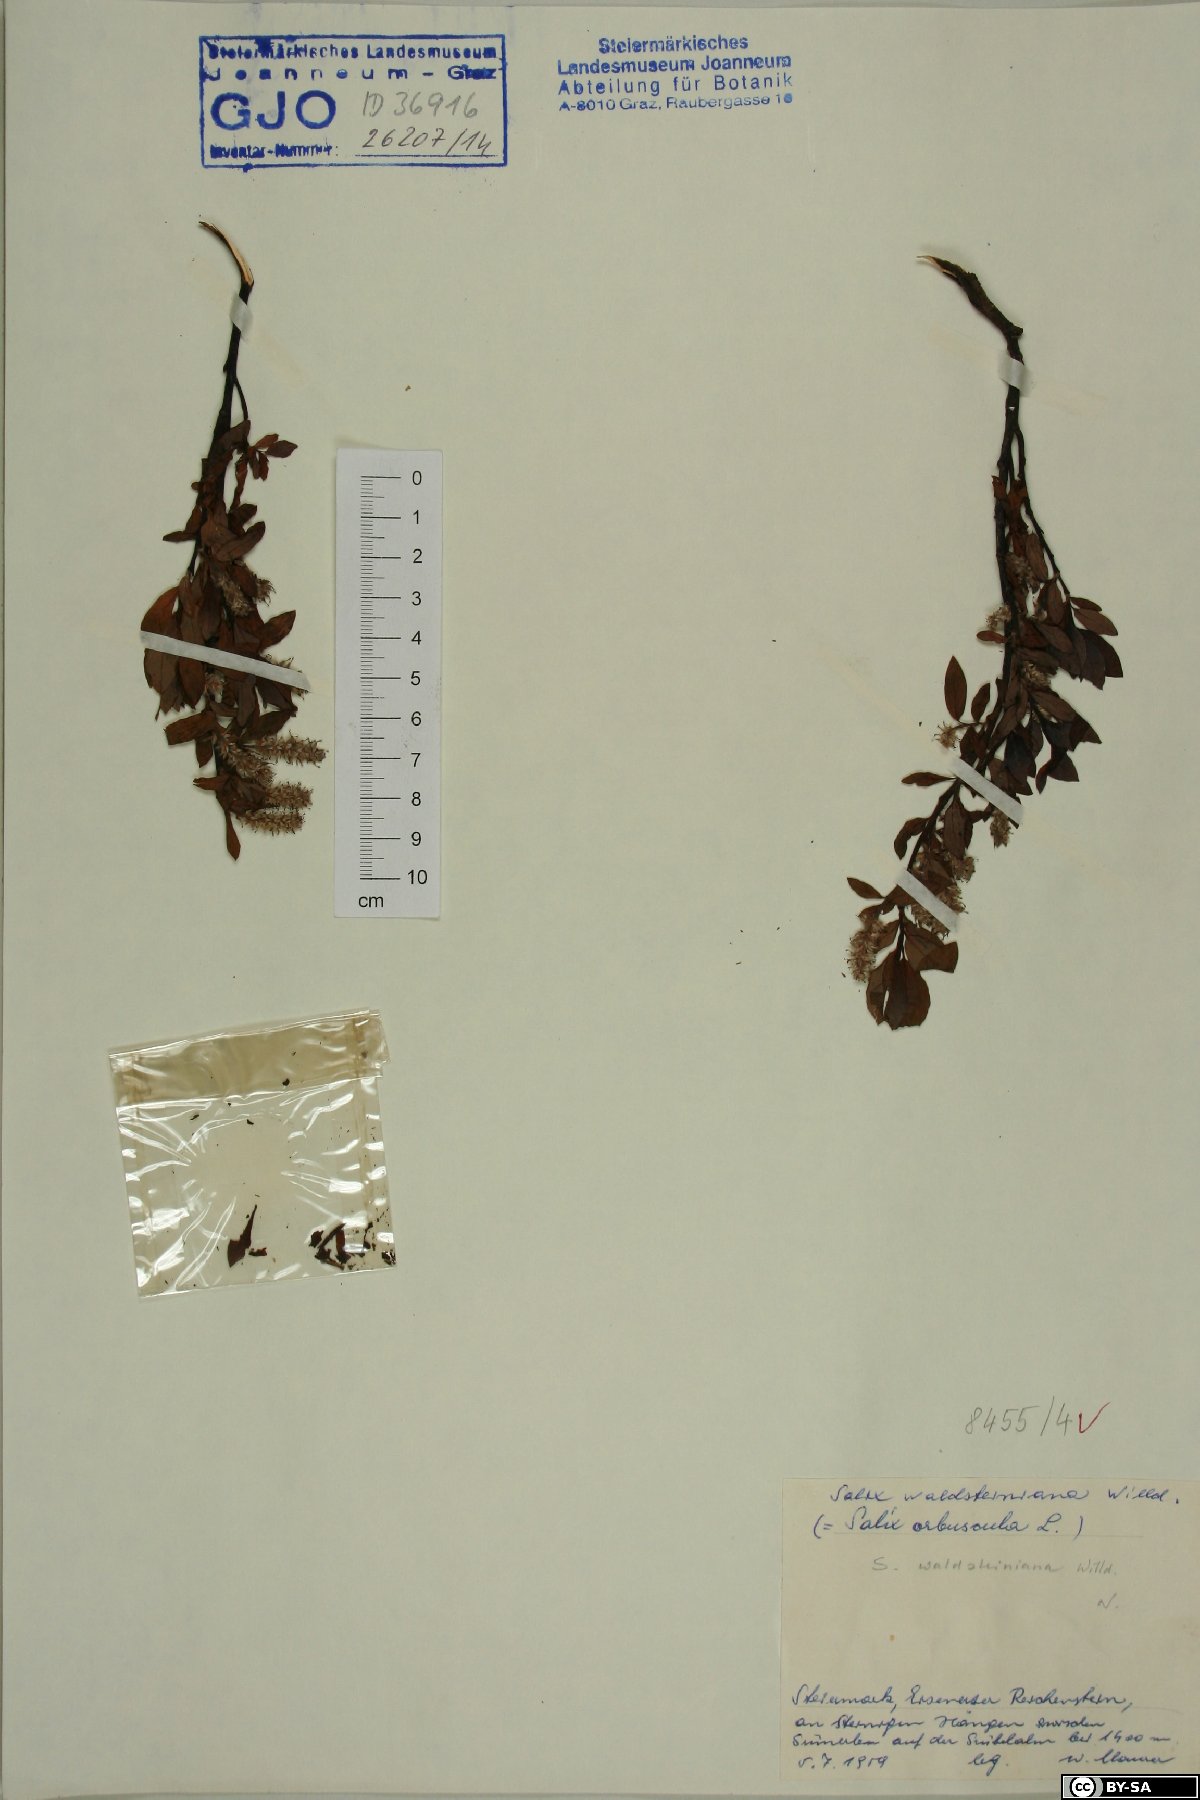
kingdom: Plantae
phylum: Tracheophyta
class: Magnoliopsida
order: Malpighiales
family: Salicaceae
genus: Salix
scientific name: Salix waldsteiniana
